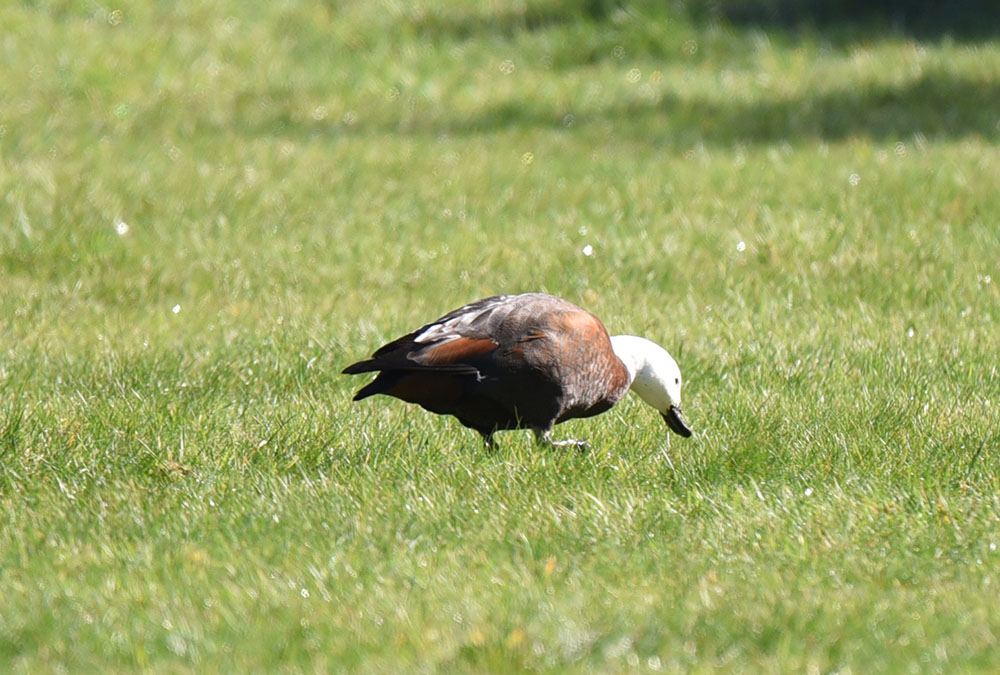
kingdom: Animalia
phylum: Chordata
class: Aves
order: Anseriformes
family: Anatidae
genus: Tadorna
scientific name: Tadorna variegata
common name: Paradise shelduck
